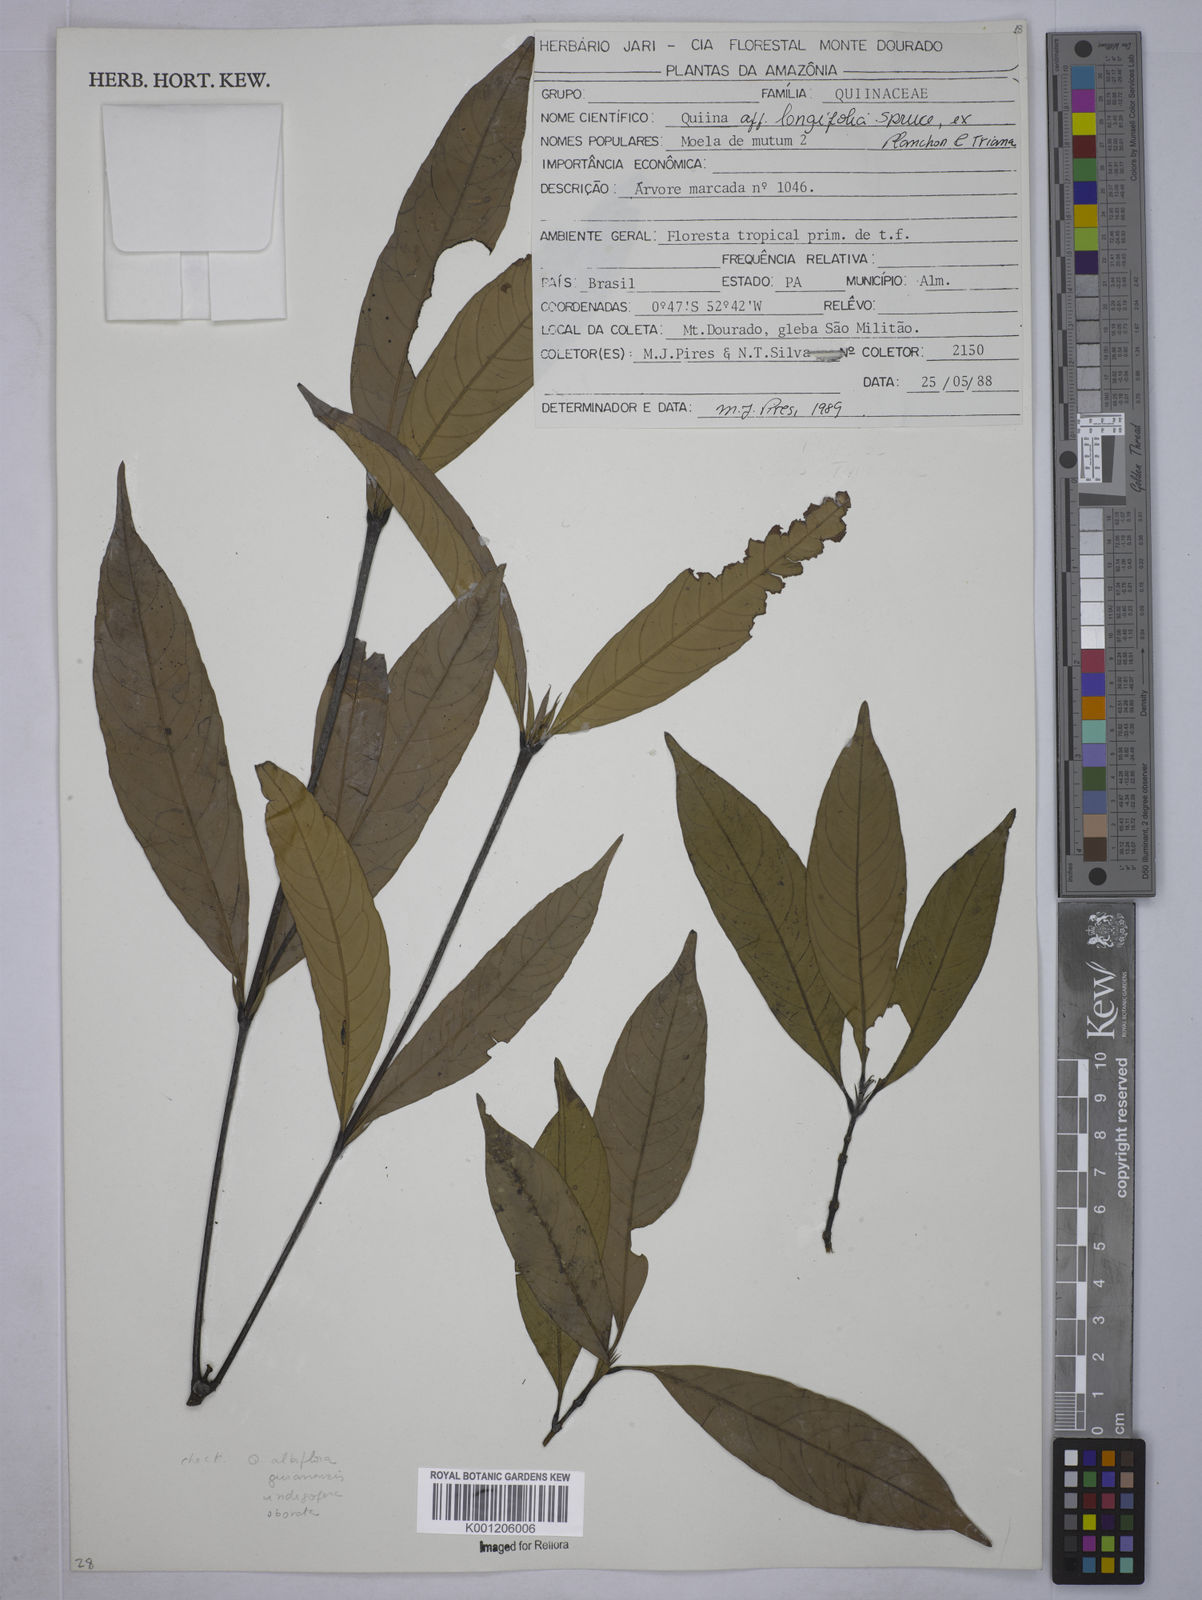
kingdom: Plantae
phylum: Tracheophyta
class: Magnoliopsida
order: Malpighiales
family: Quiinaceae
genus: Quiina
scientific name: Quiina
